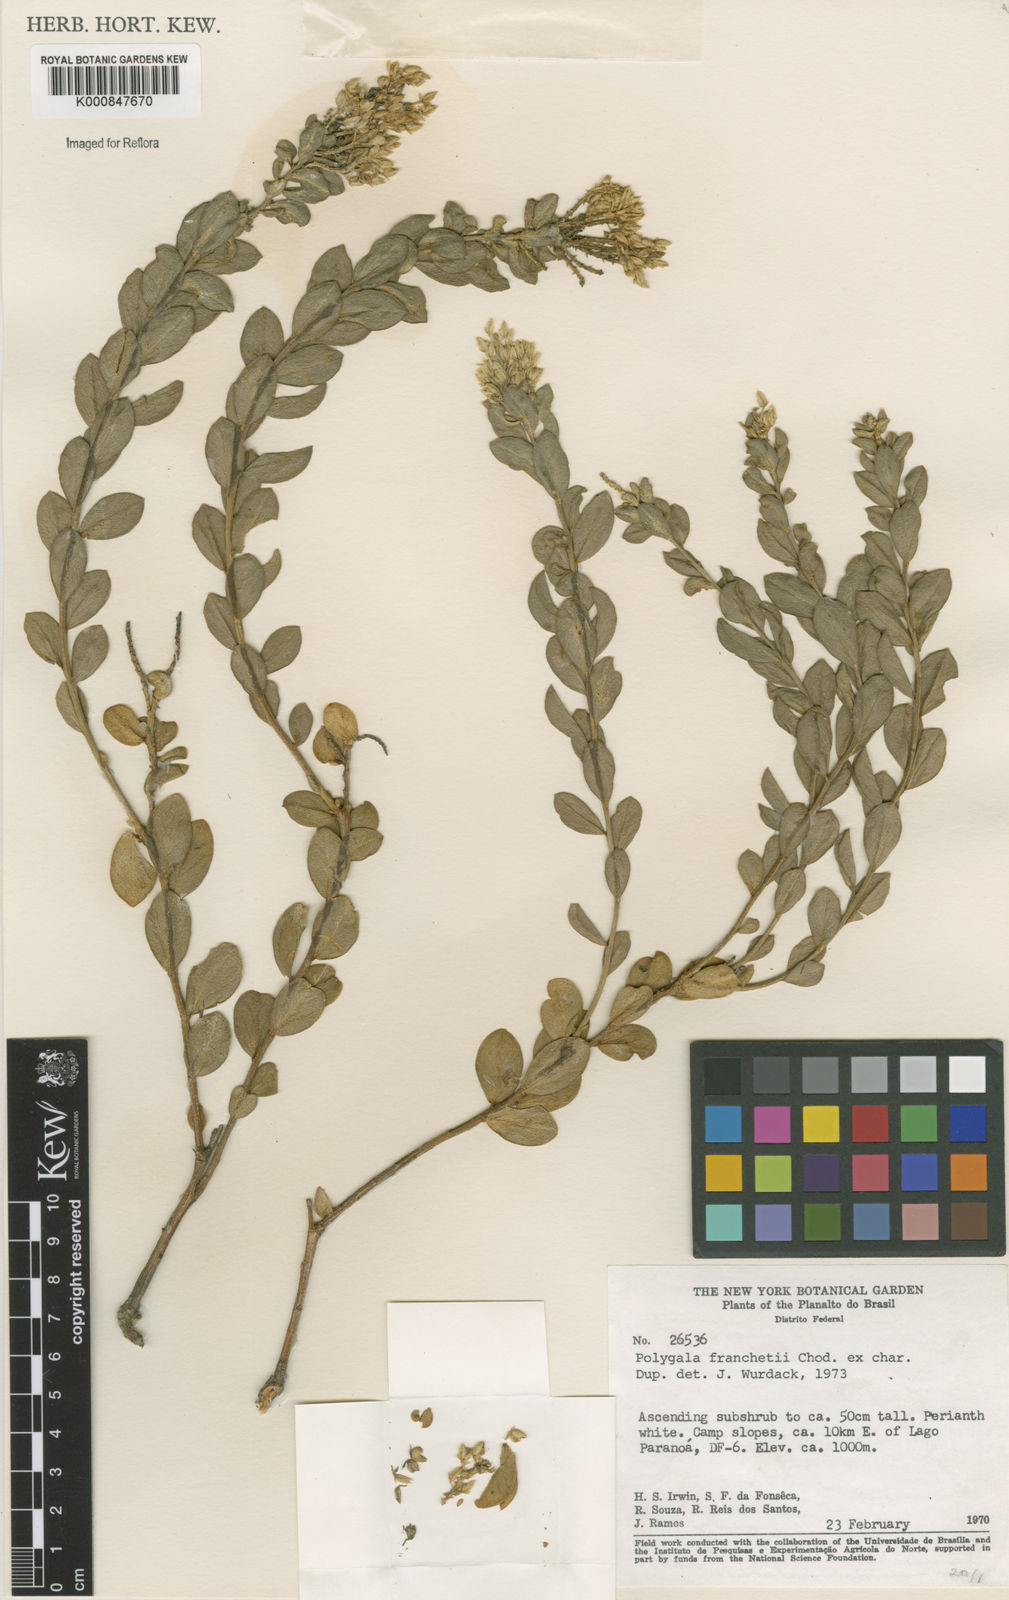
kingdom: Plantae
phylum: Tracheophyta
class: Magnoliopsida
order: Fabales
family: Polygalaceae
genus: Polygala
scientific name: Polygala franchetii
